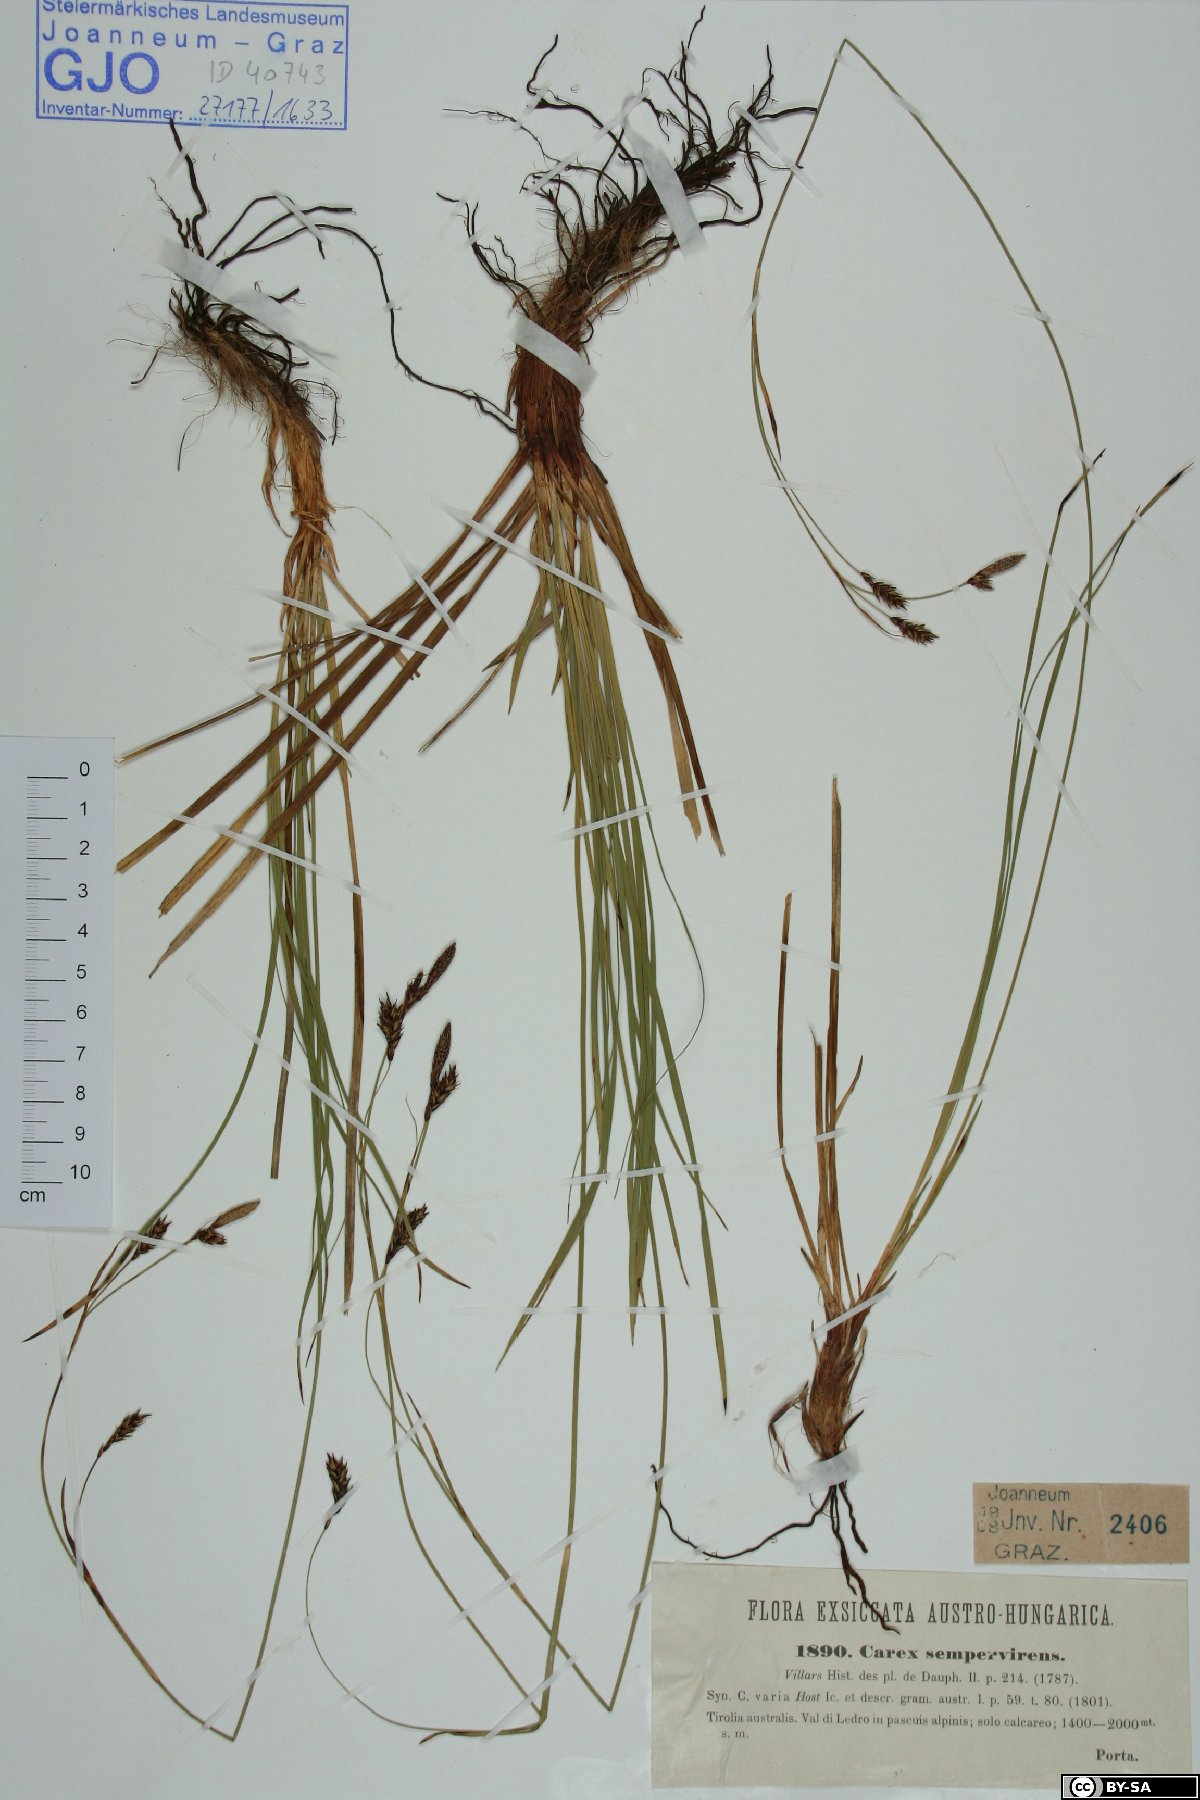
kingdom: Plantae
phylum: Tracheophyta
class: Liliopsida
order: Poales
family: Cyperaceae
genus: Carex
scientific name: Carex sempervirens
